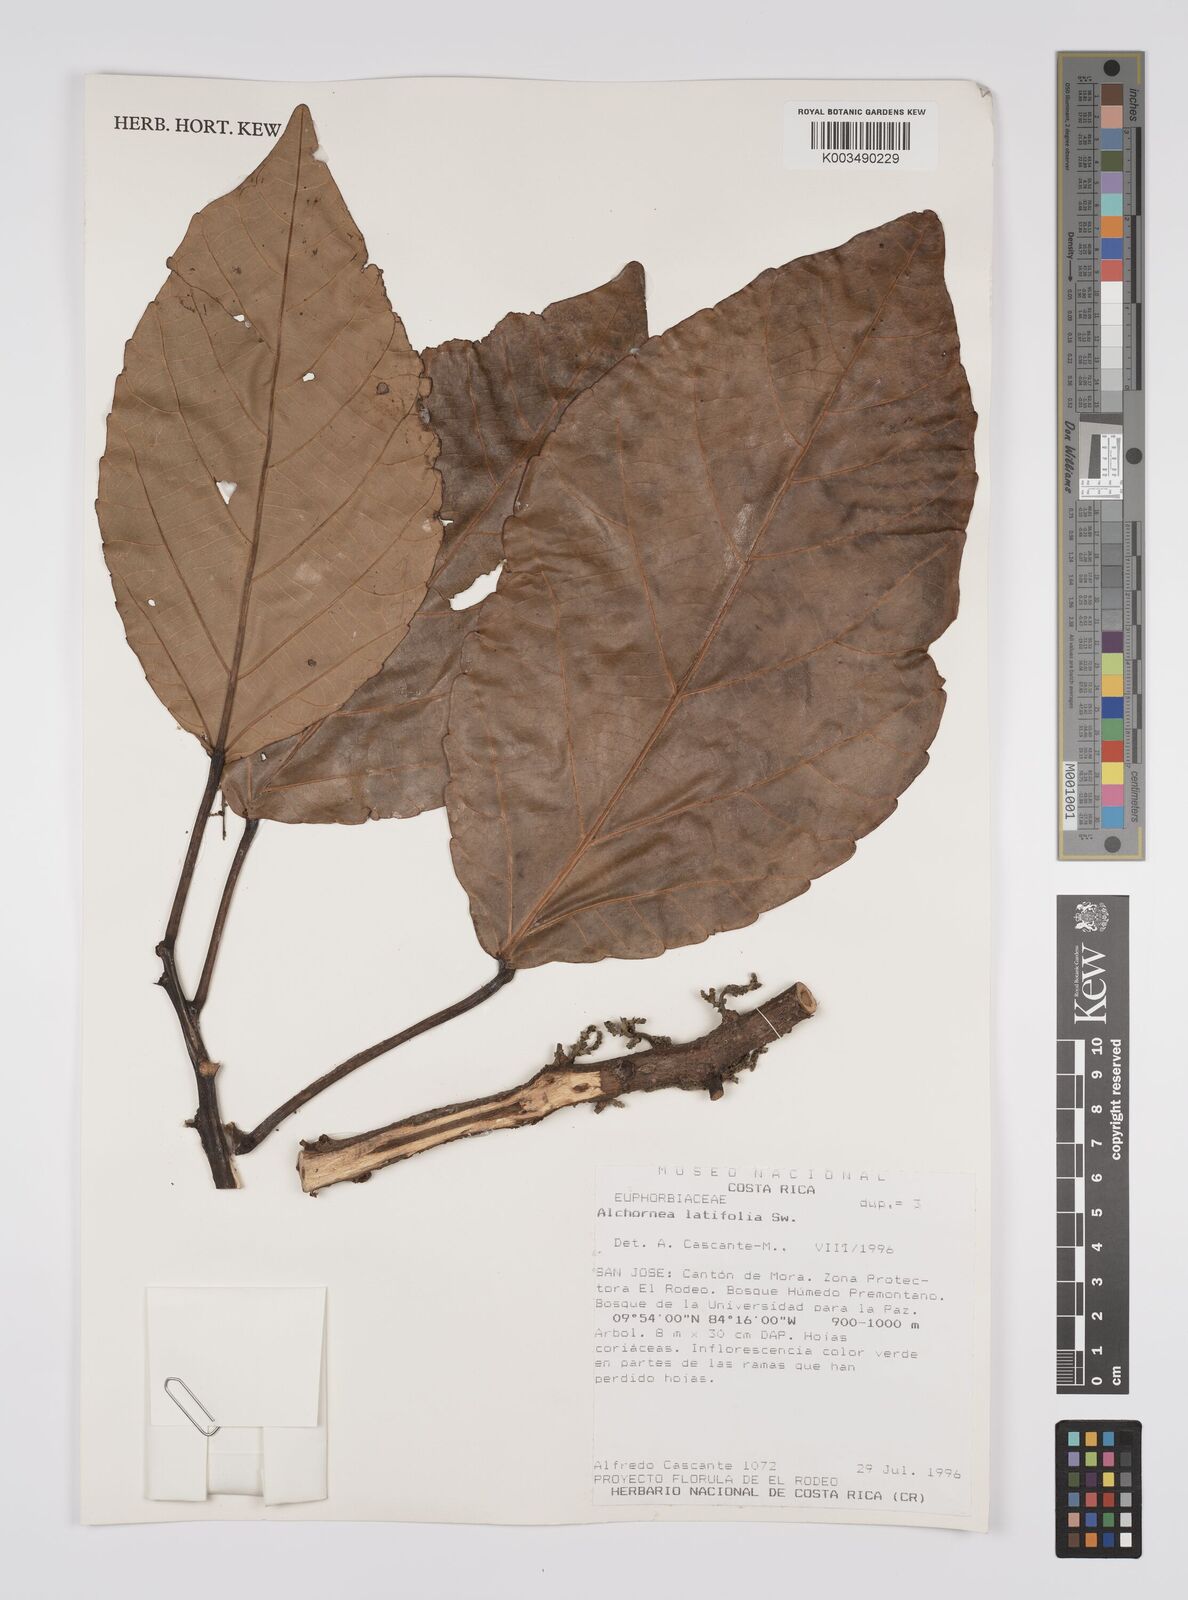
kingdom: Plantae
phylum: Tracheophyta
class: Magnoliopsida
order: Malpighiales
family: Euphorbiaceae
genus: Alchornea
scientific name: Alchornea latifolia
